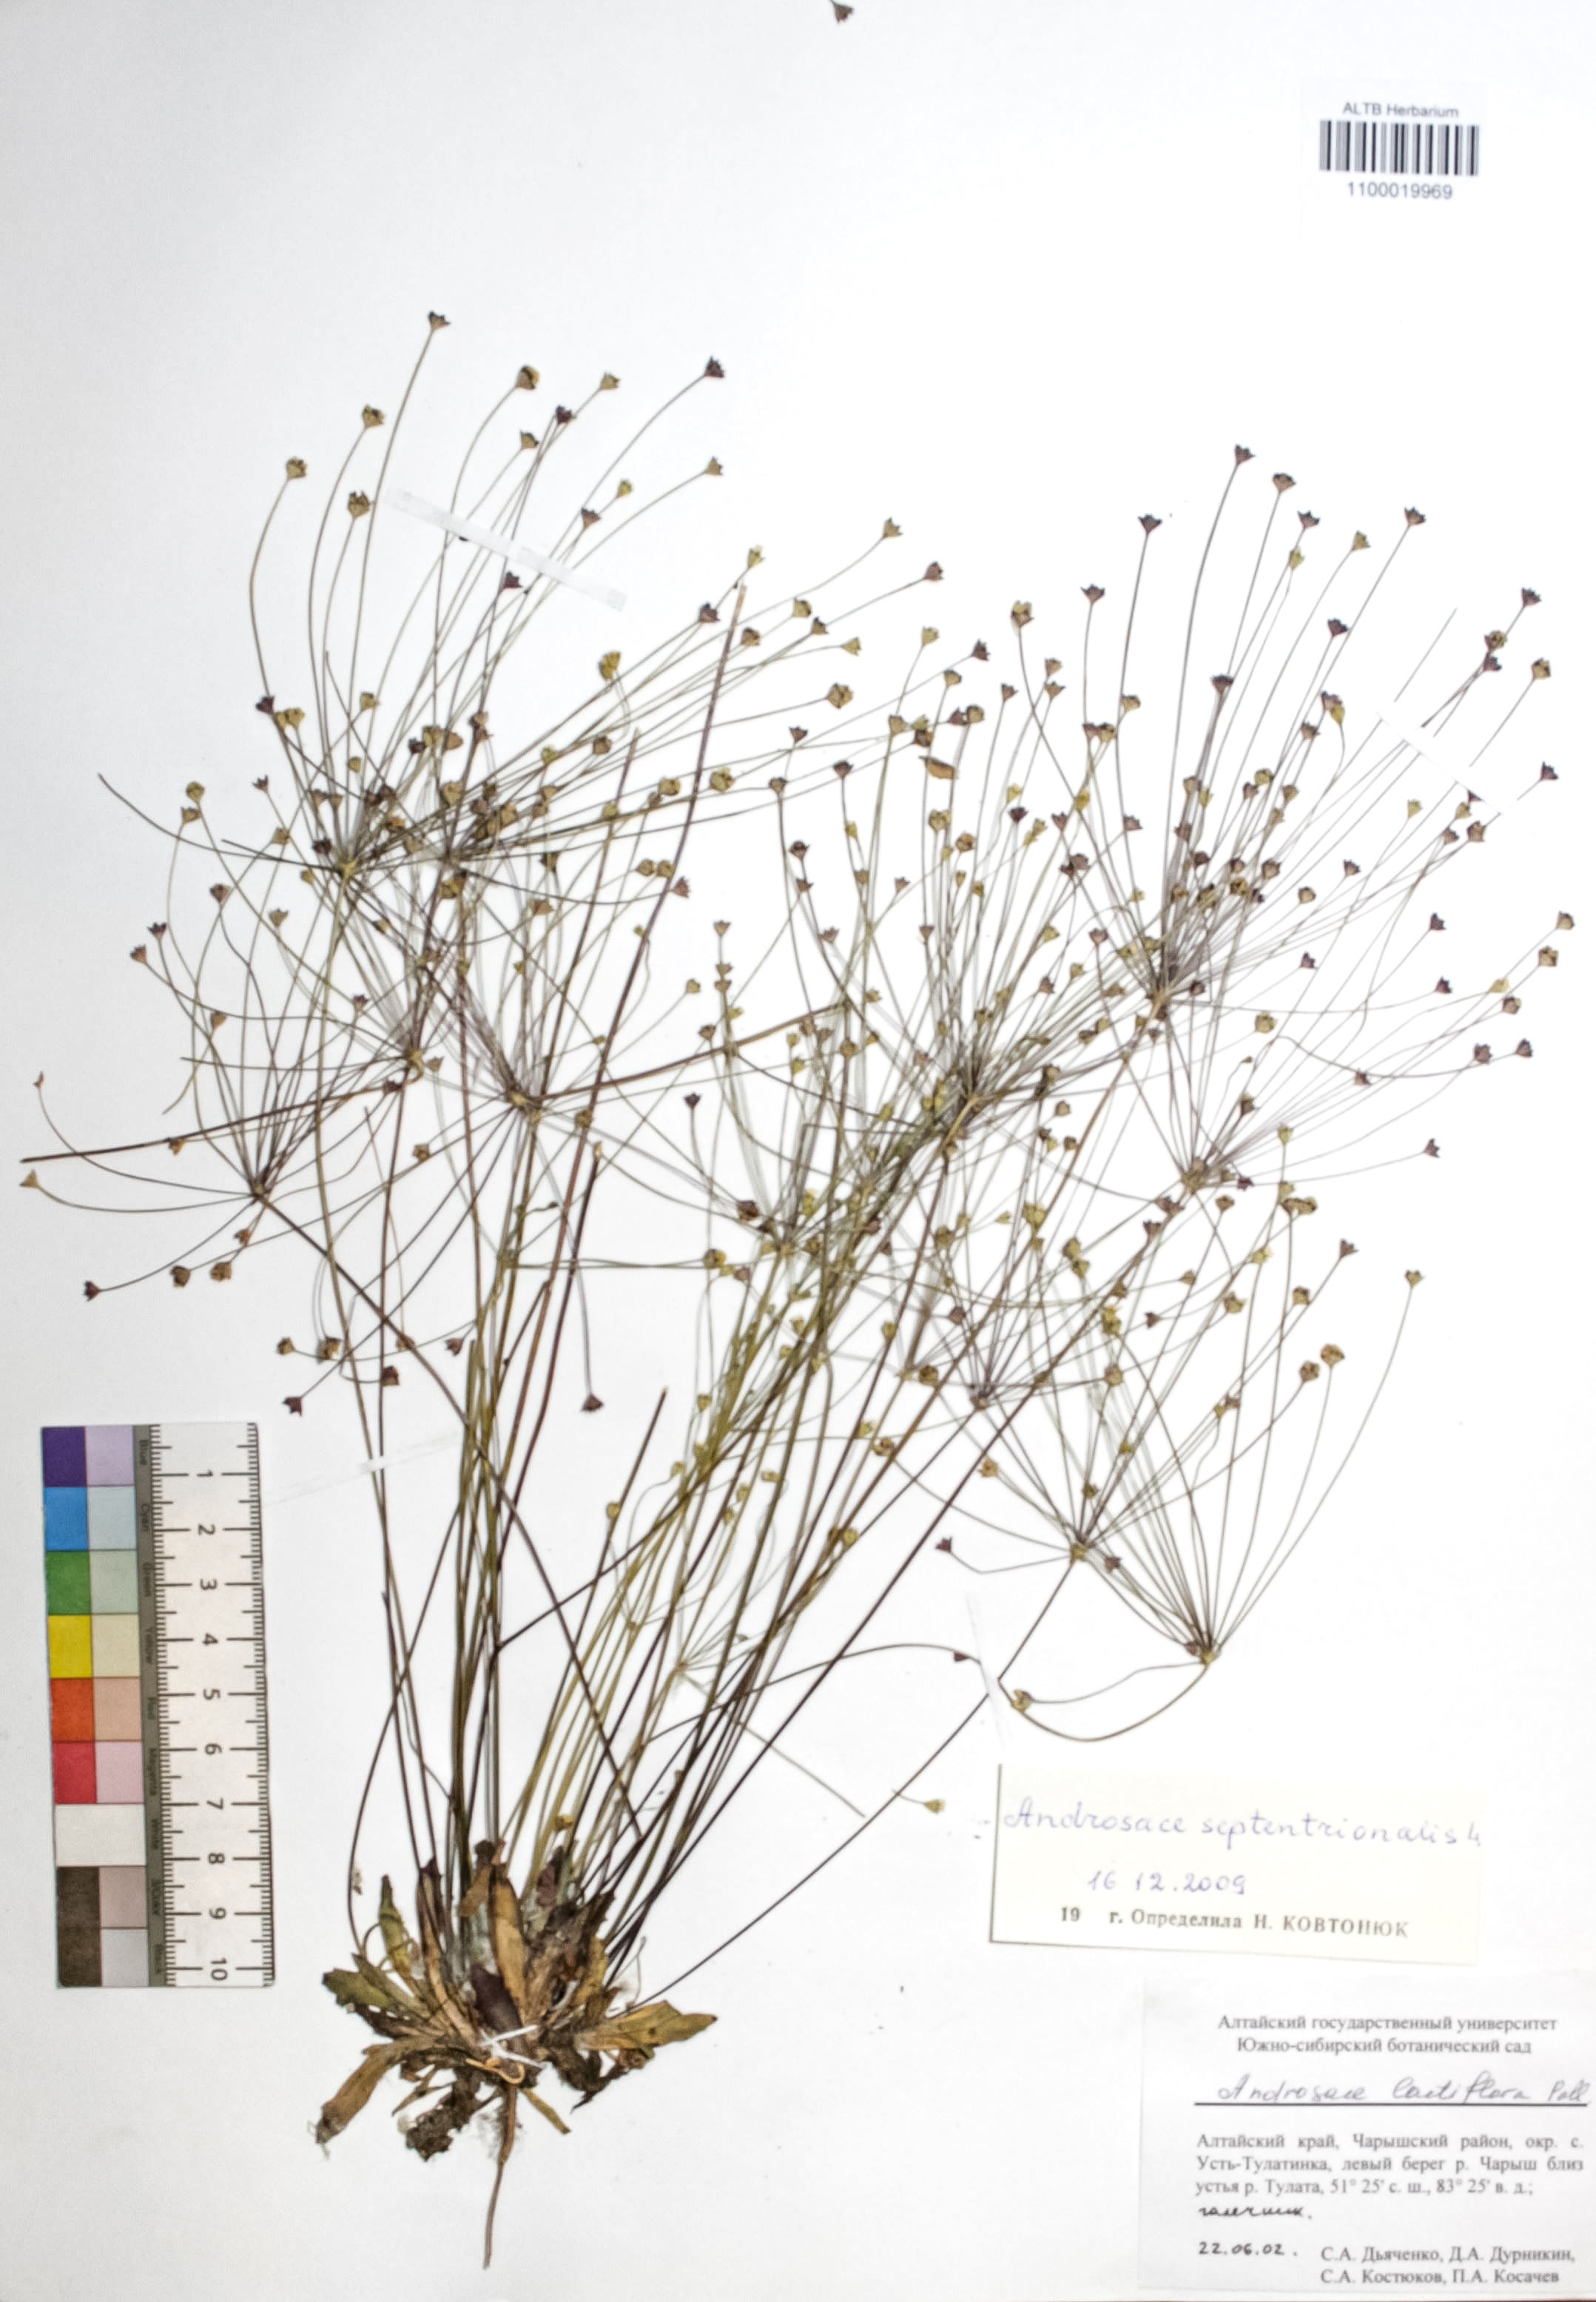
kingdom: Plantae
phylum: Tracheophyta
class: Magnoliopsida
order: Ericales
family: Primulaceae
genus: Androsace
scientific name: Androsace septentrionalis
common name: Hairy northern fairy-candelabra
